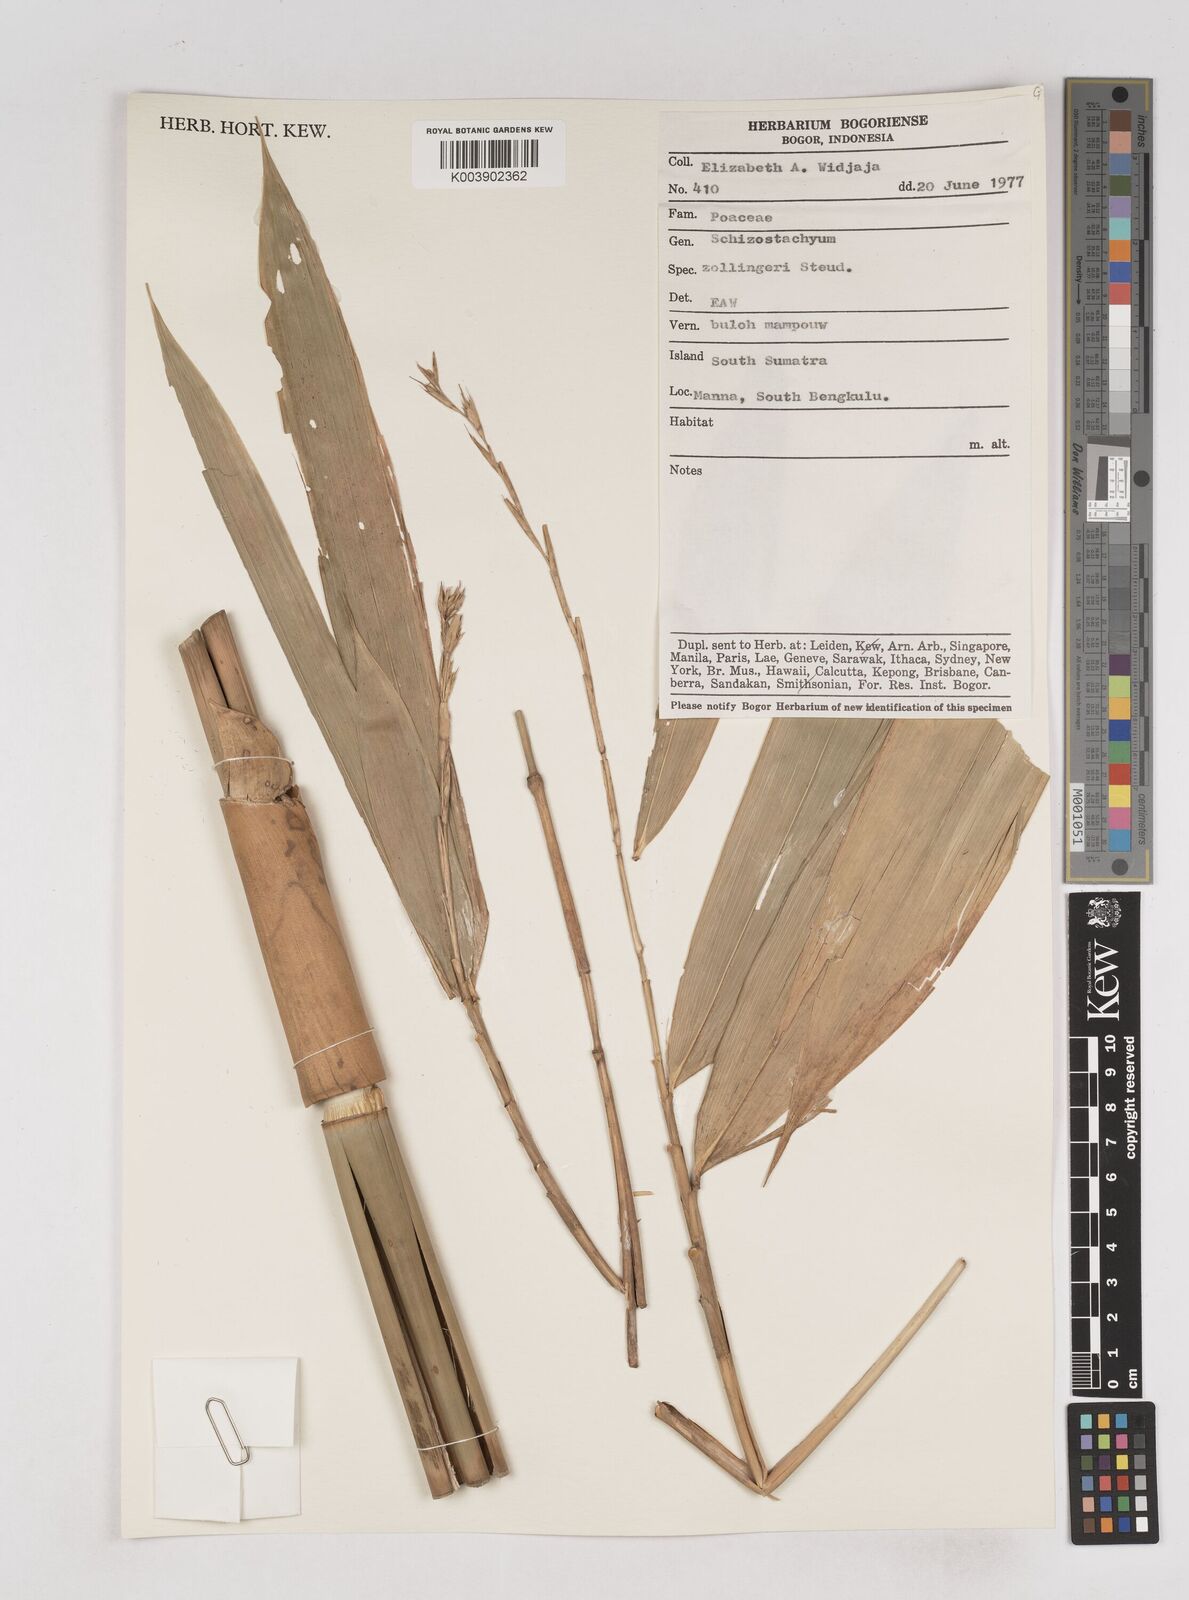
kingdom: Plantae
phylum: Tracheophyta
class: Liliopsida
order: Poales
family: Poaceae
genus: Schizostachyum
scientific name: Schizostachyum zollingeri
